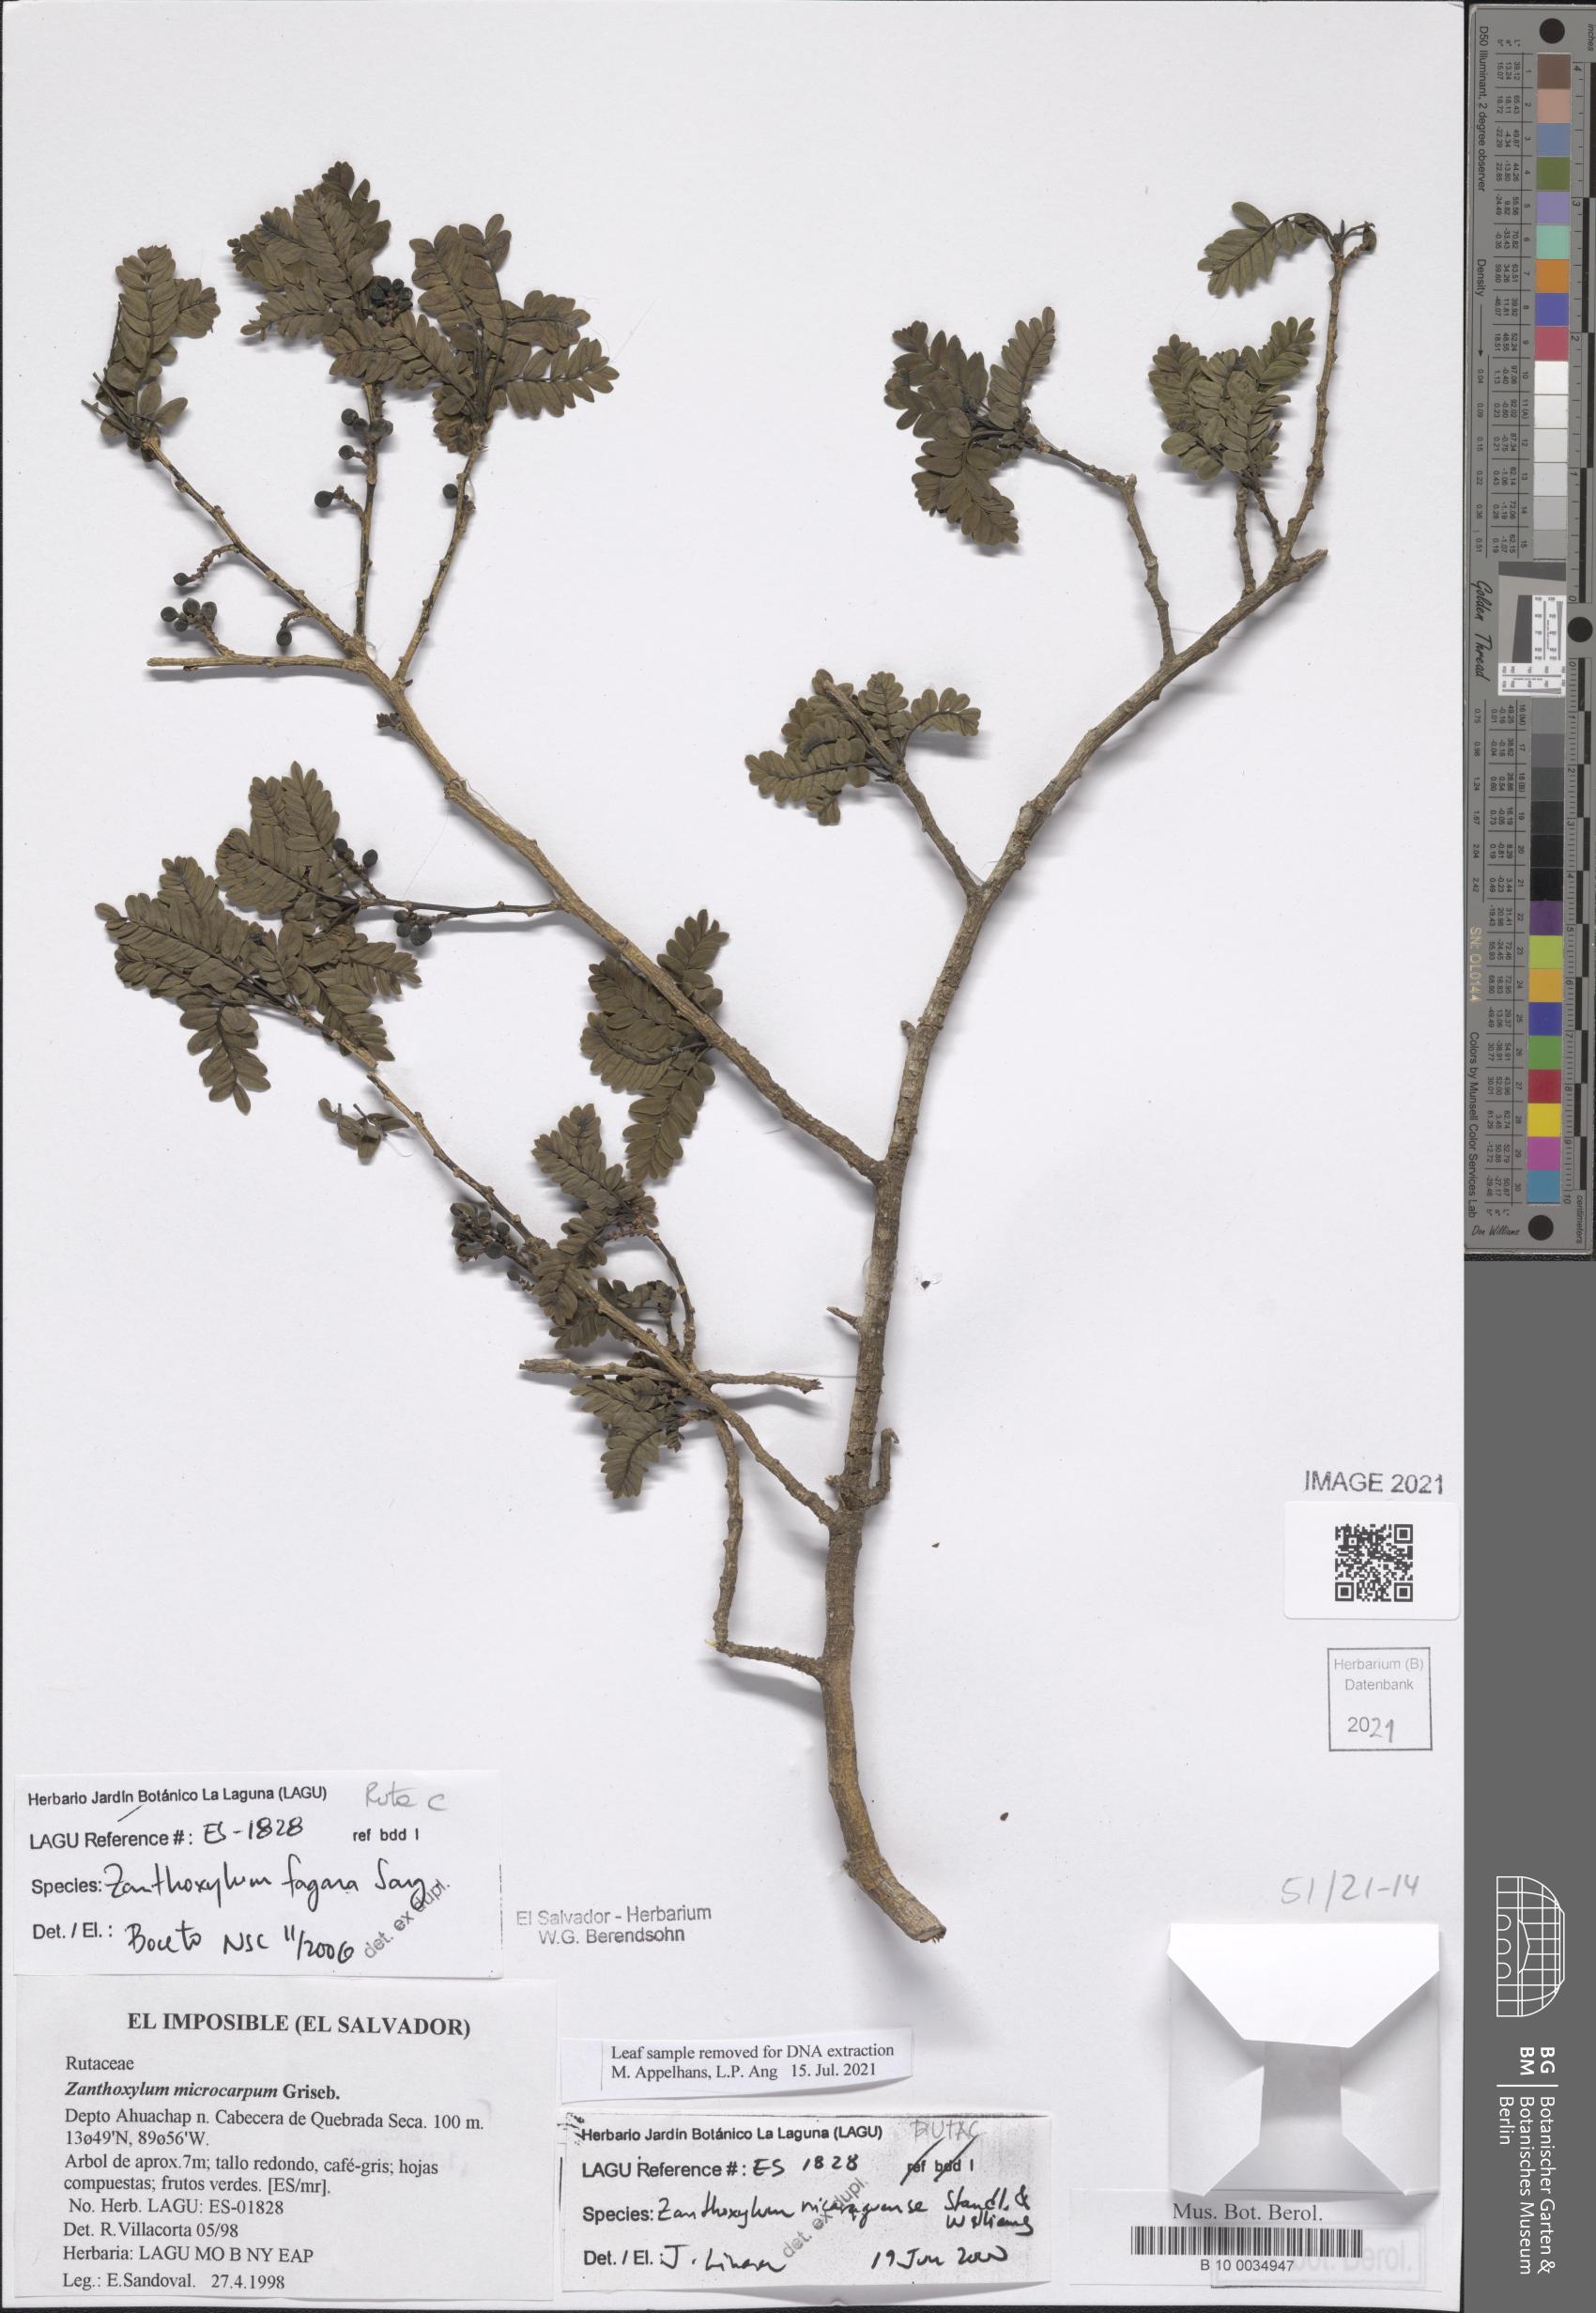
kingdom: Plantae
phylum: Tracheophyta
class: Magnoliopsida
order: Sapindales
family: Rutaceae
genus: Zanthoxylum
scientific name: Zanthoxylum fagara
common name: Lime prickly-ash
